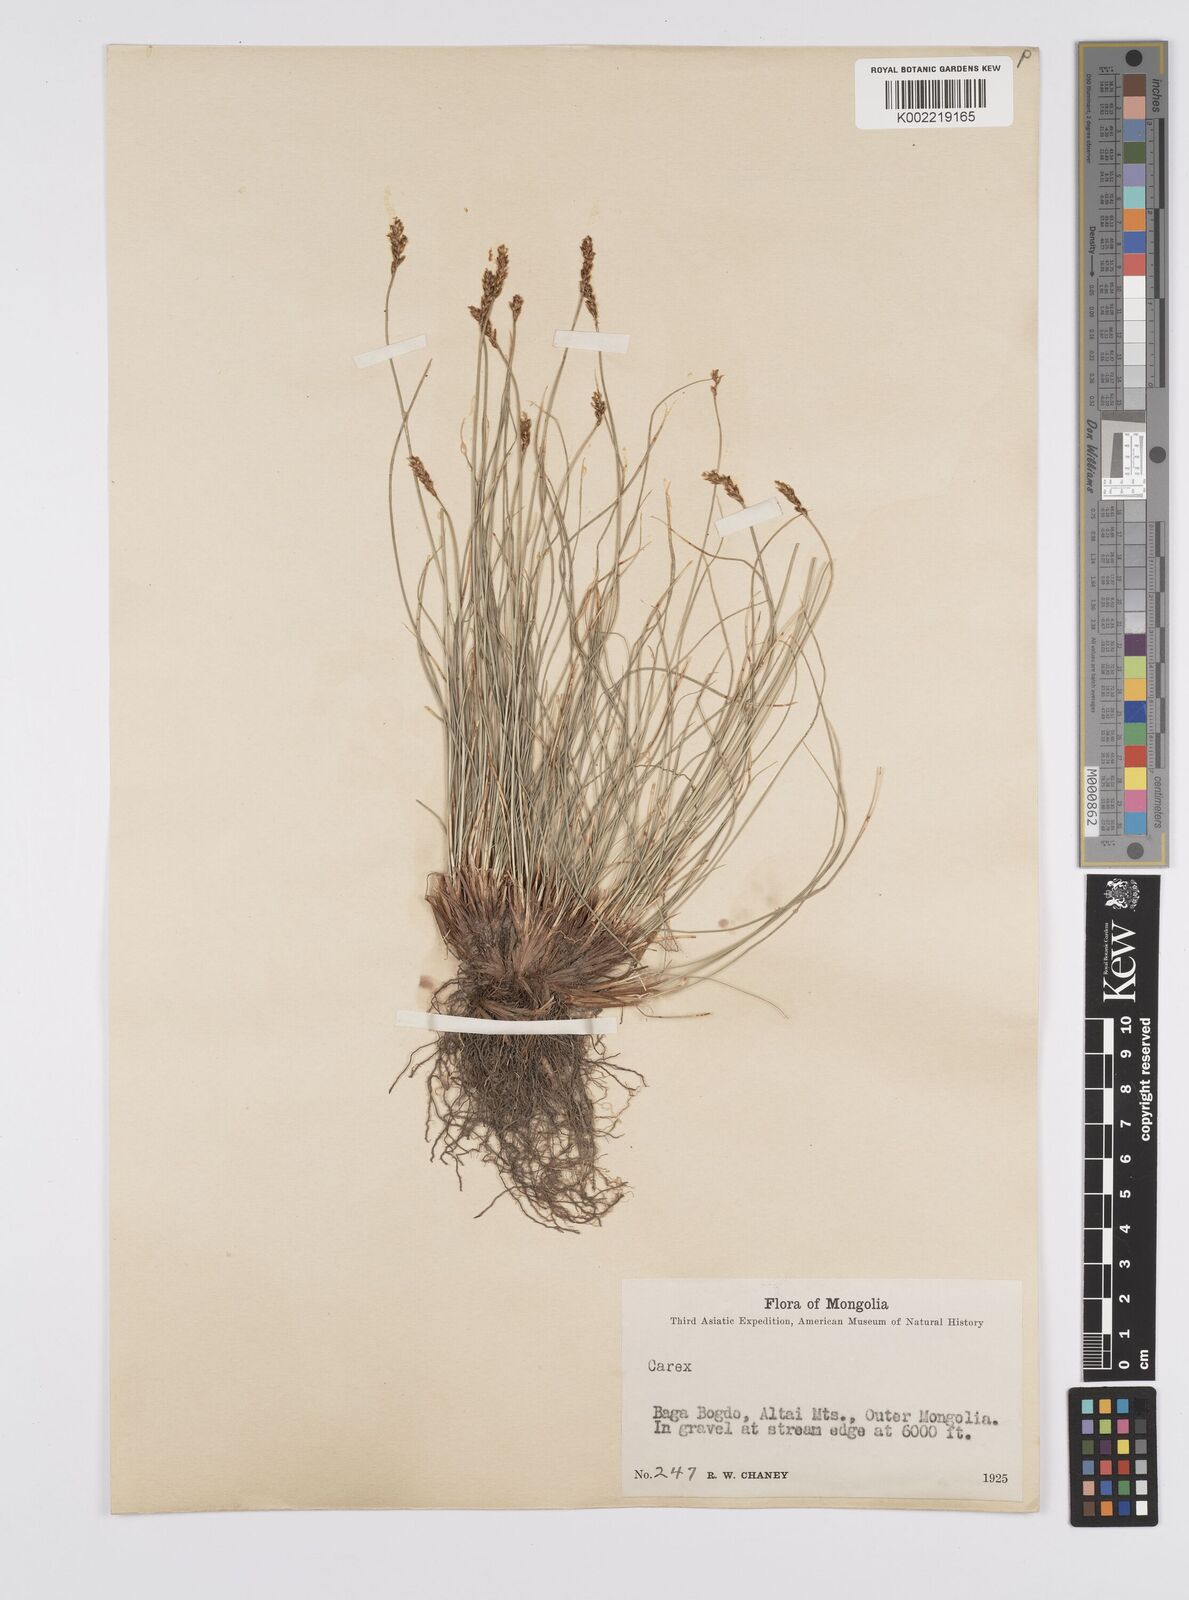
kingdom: Plantae
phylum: Tracheophyta
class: Liliopsida
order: Poales
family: Cyperaceae
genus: Carex
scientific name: Carex
